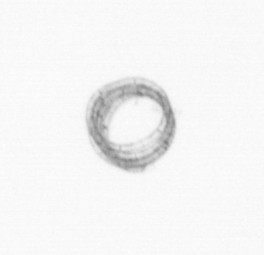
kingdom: Chromista
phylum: Ochrophyta
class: Bacillariophyceae
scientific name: Bacillariophyceae
